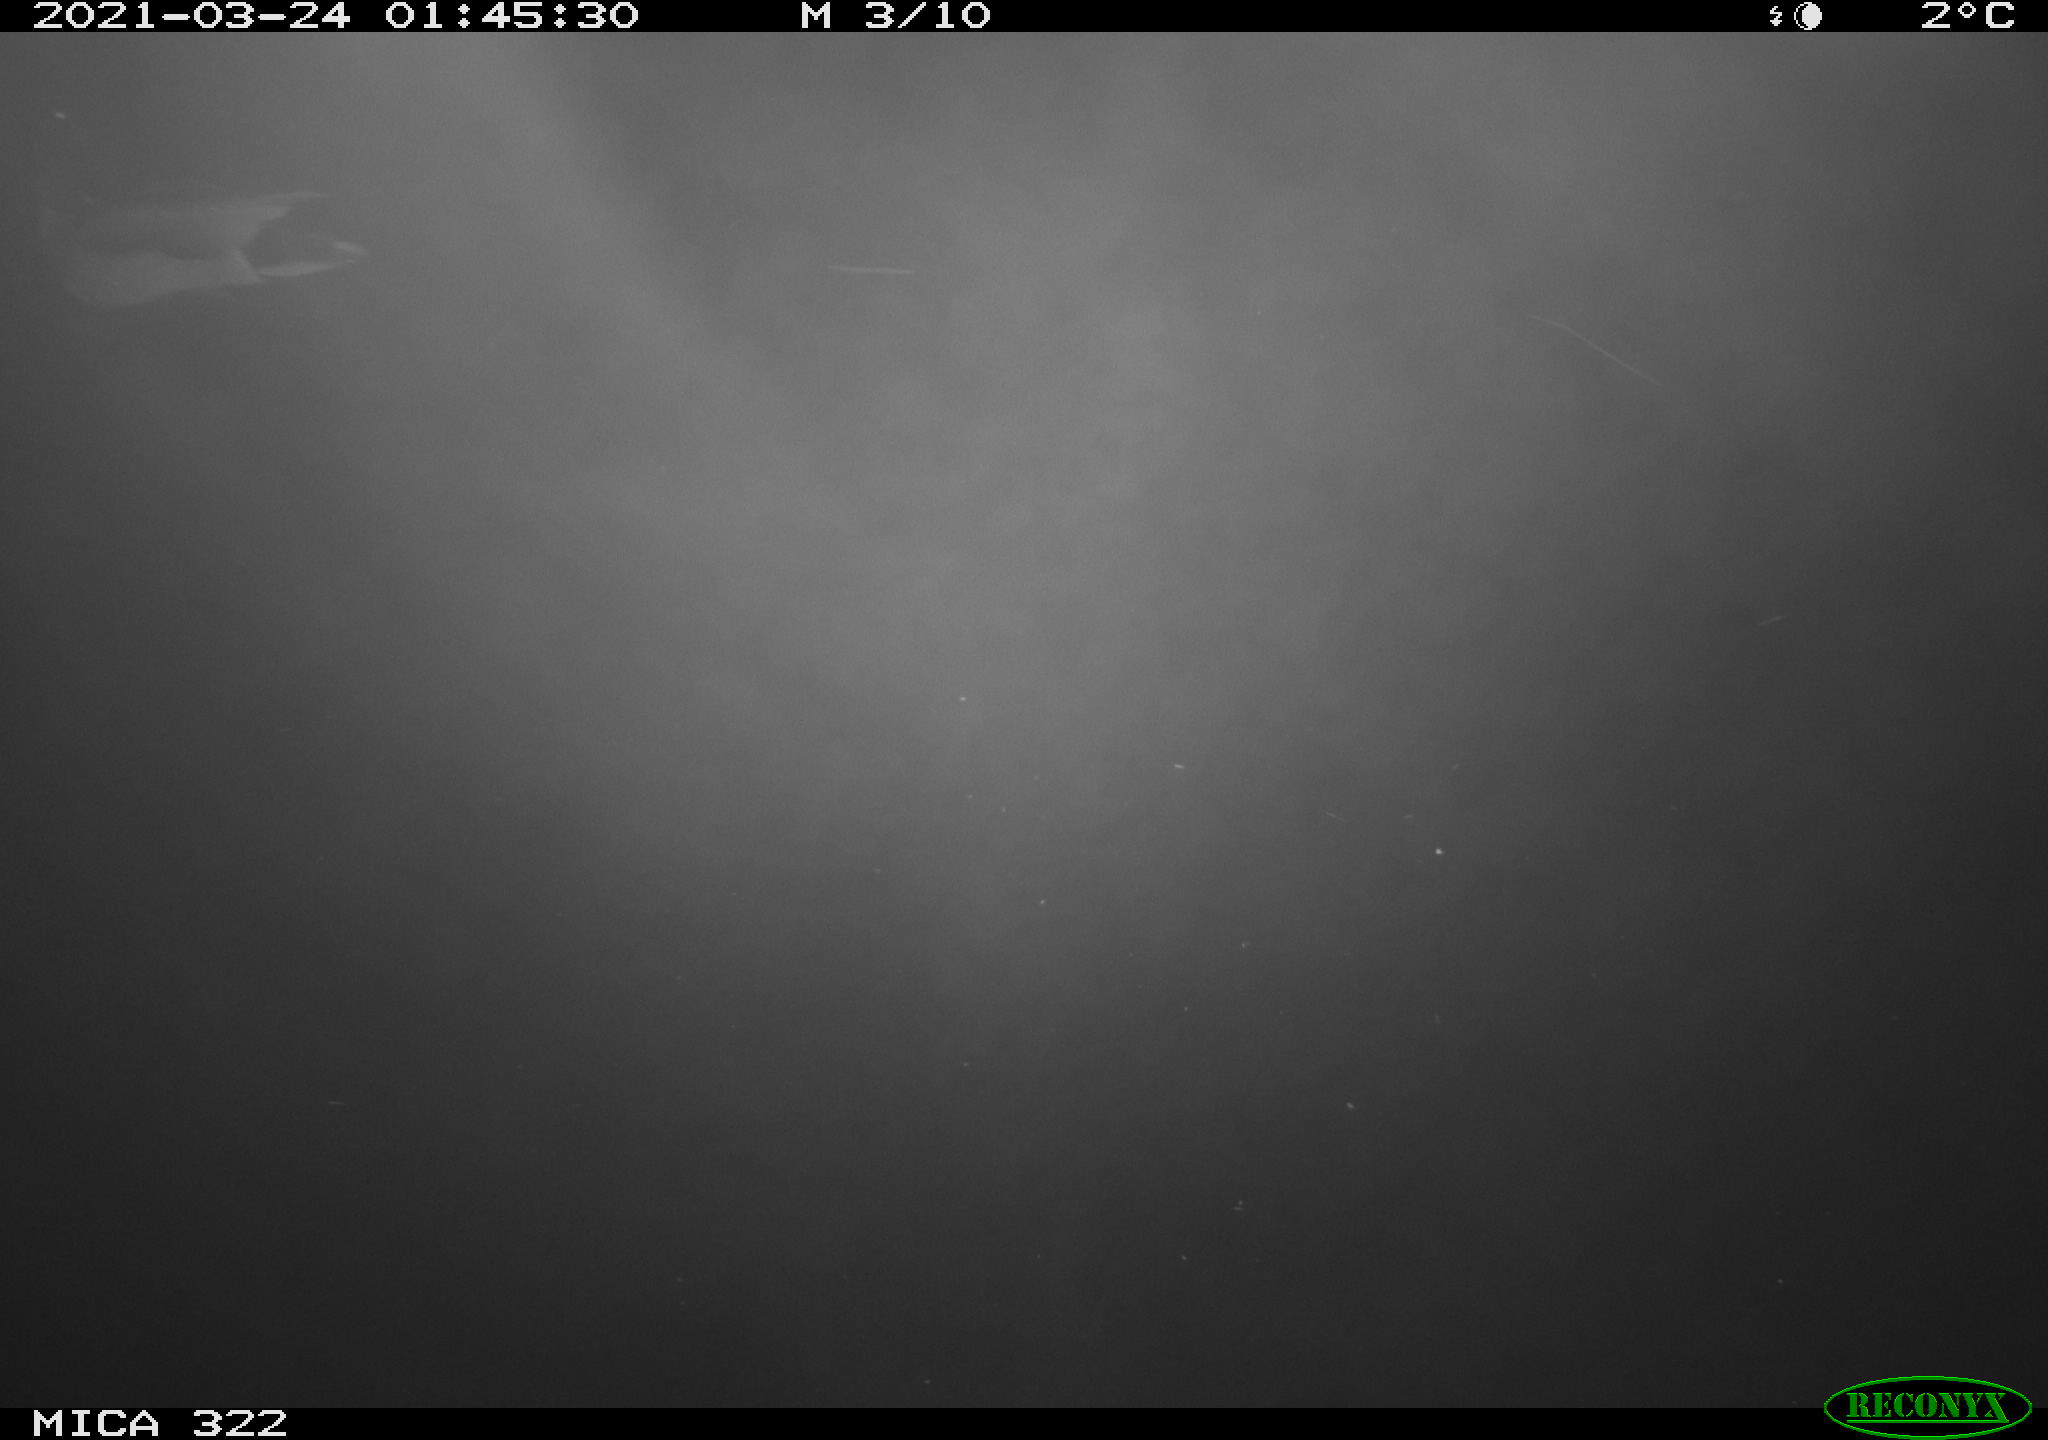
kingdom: Animalia
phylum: Chordata
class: Aves
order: Anseriformes
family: Anatidae
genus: Anas
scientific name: Anas platyrhynchos
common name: Mallard
